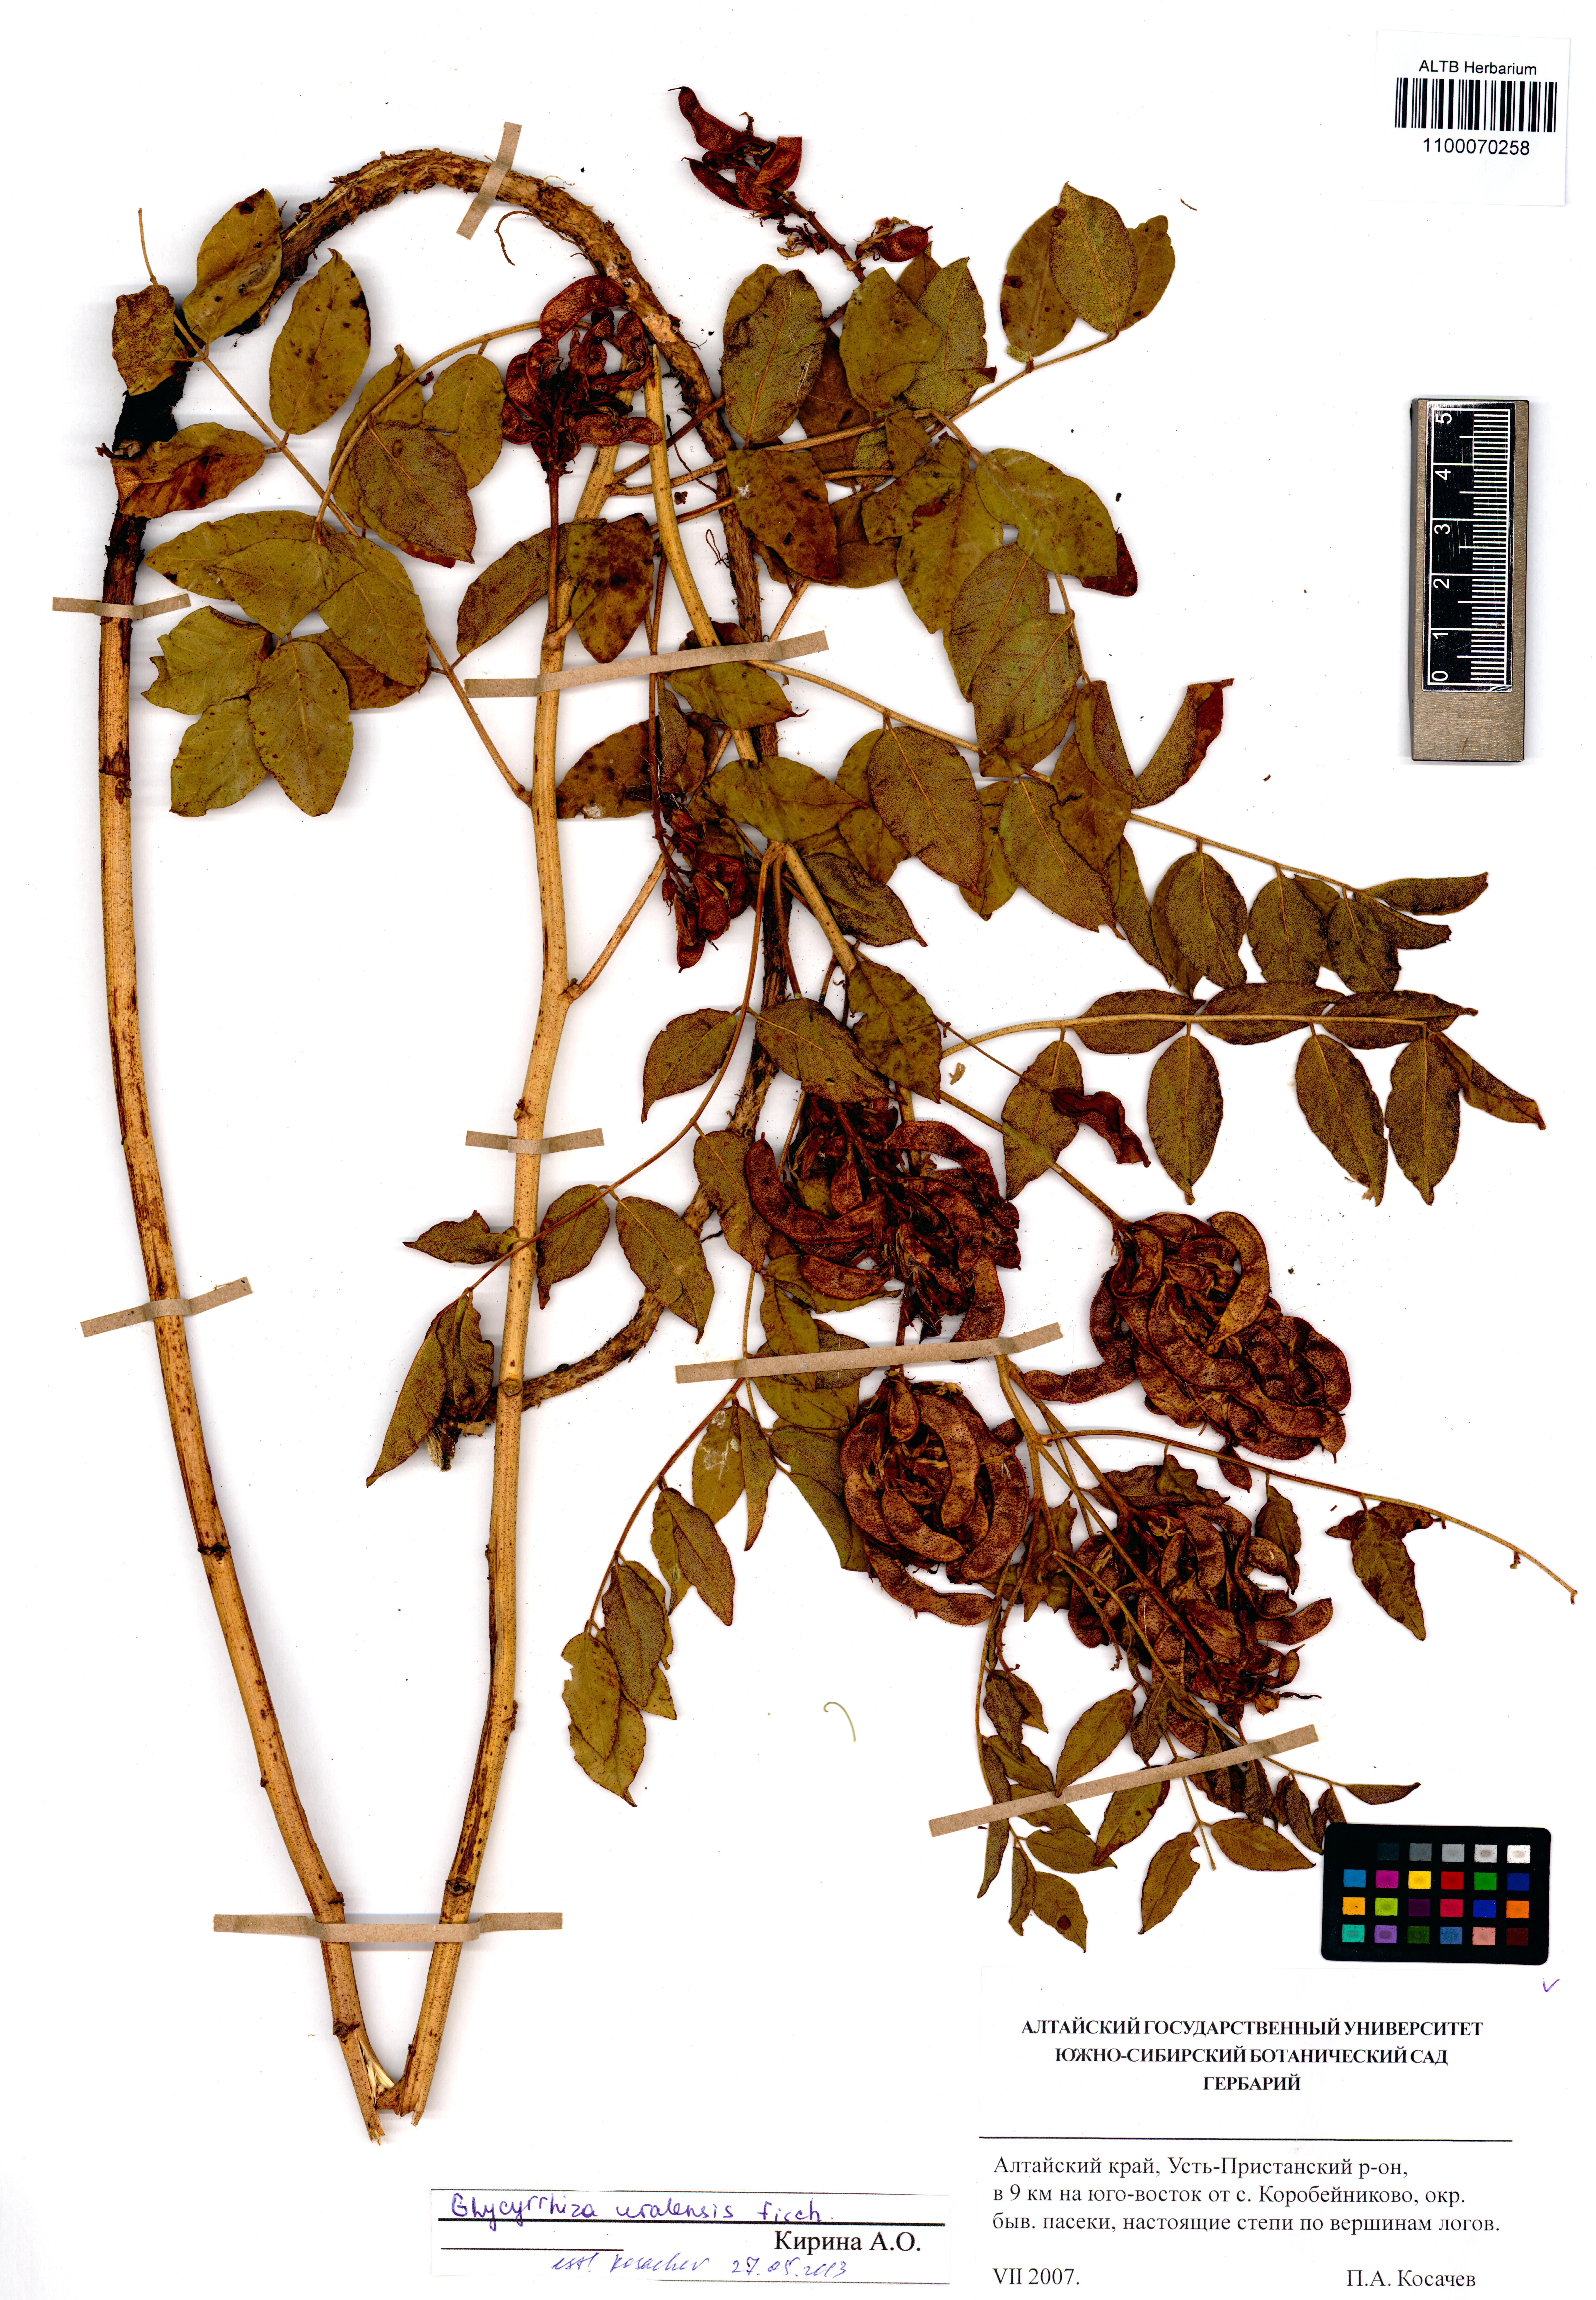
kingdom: Plantae
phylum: Tracheophyta
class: Magnoliopsida
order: Fabales
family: Fabaceae
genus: Glycyrrhiza
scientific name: Glycyrrhiza uralensis
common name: Chinese licorice
